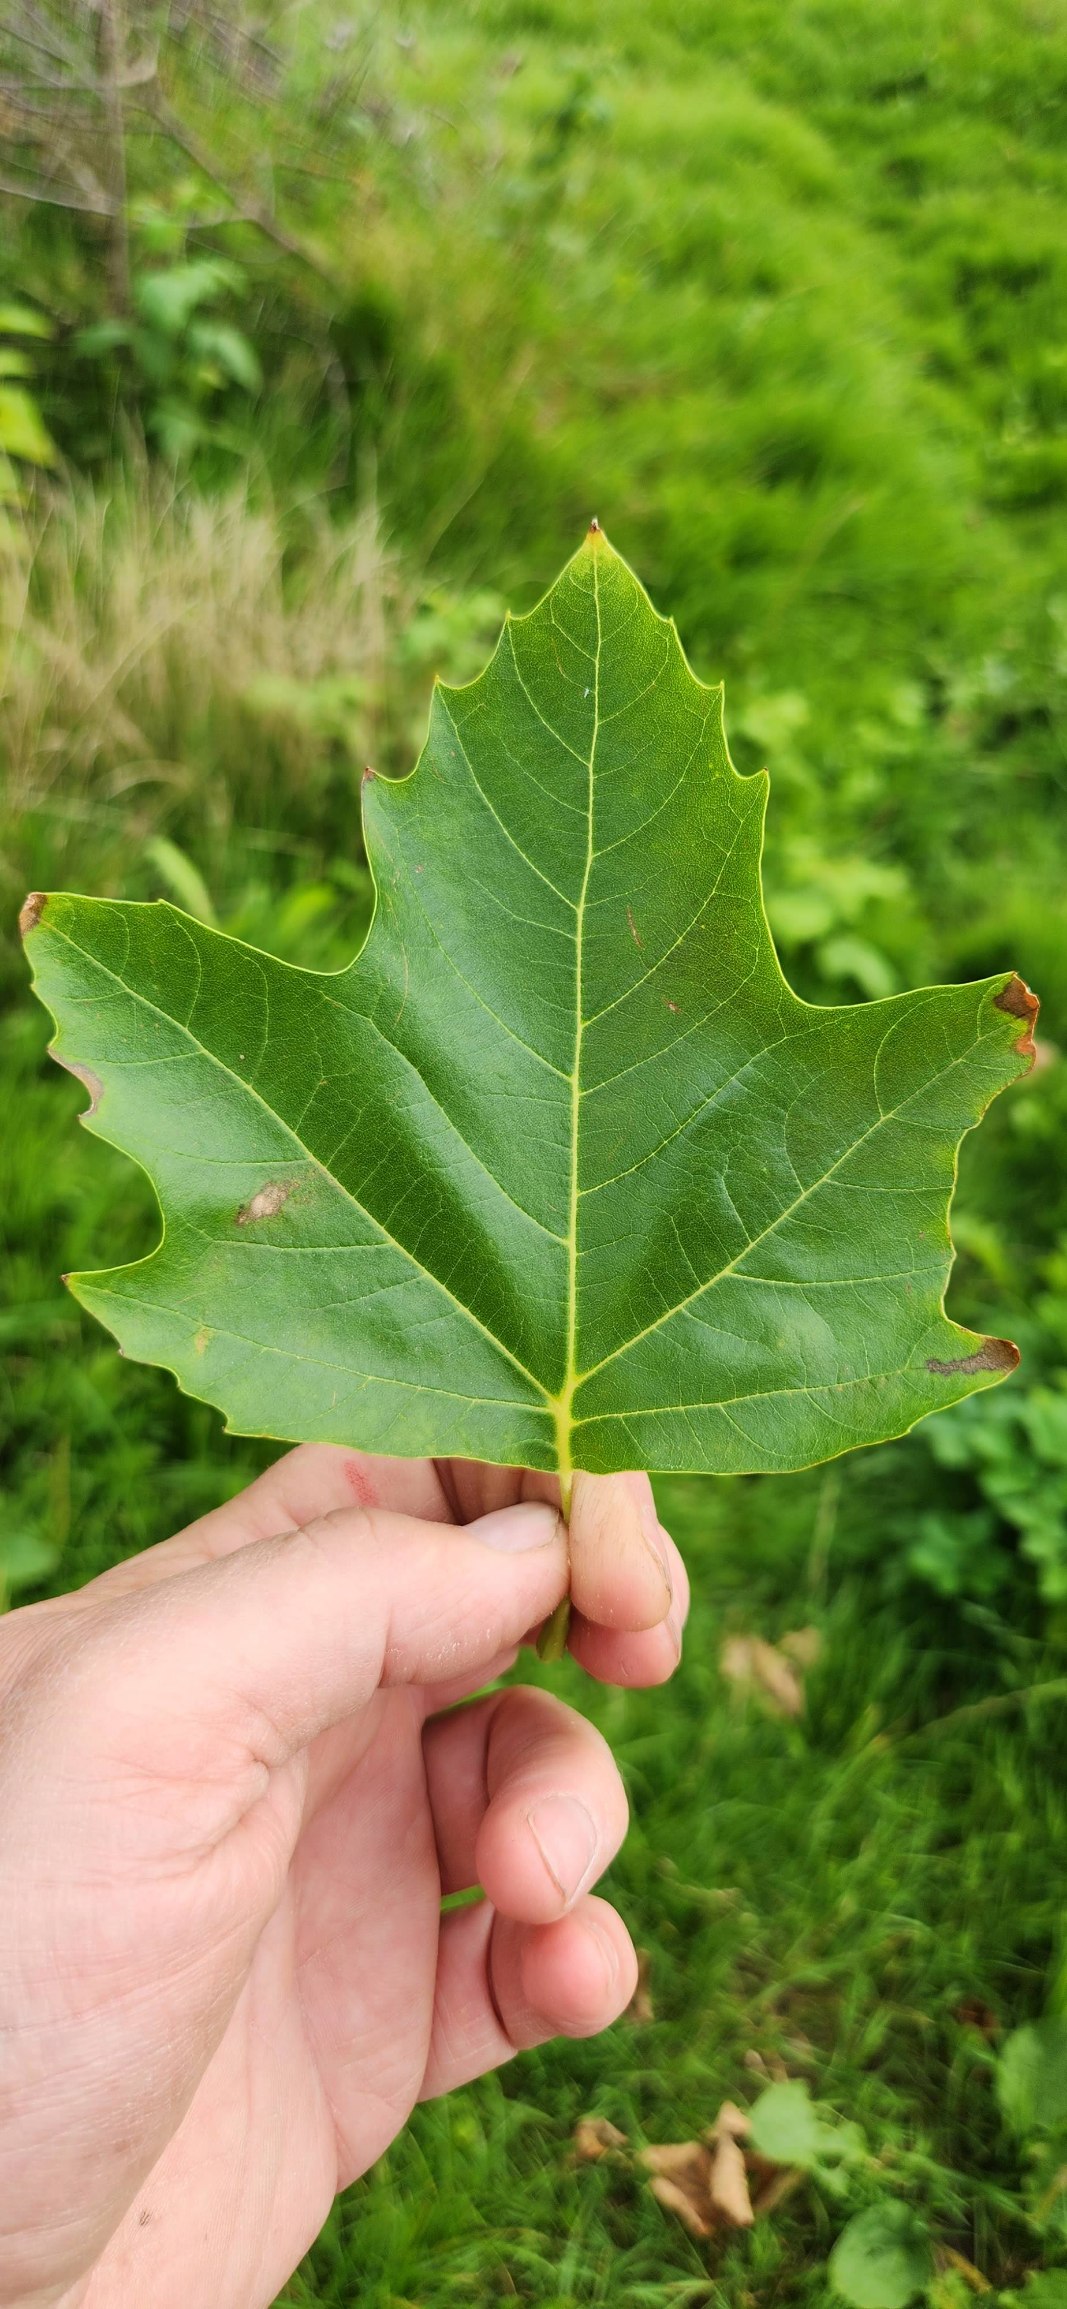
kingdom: Plantae
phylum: Tracheophyta
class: Magnoliopsida
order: Proteales
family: Platanaceae
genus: Platanus
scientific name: Platanus hispanica
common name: Almindelig platan
